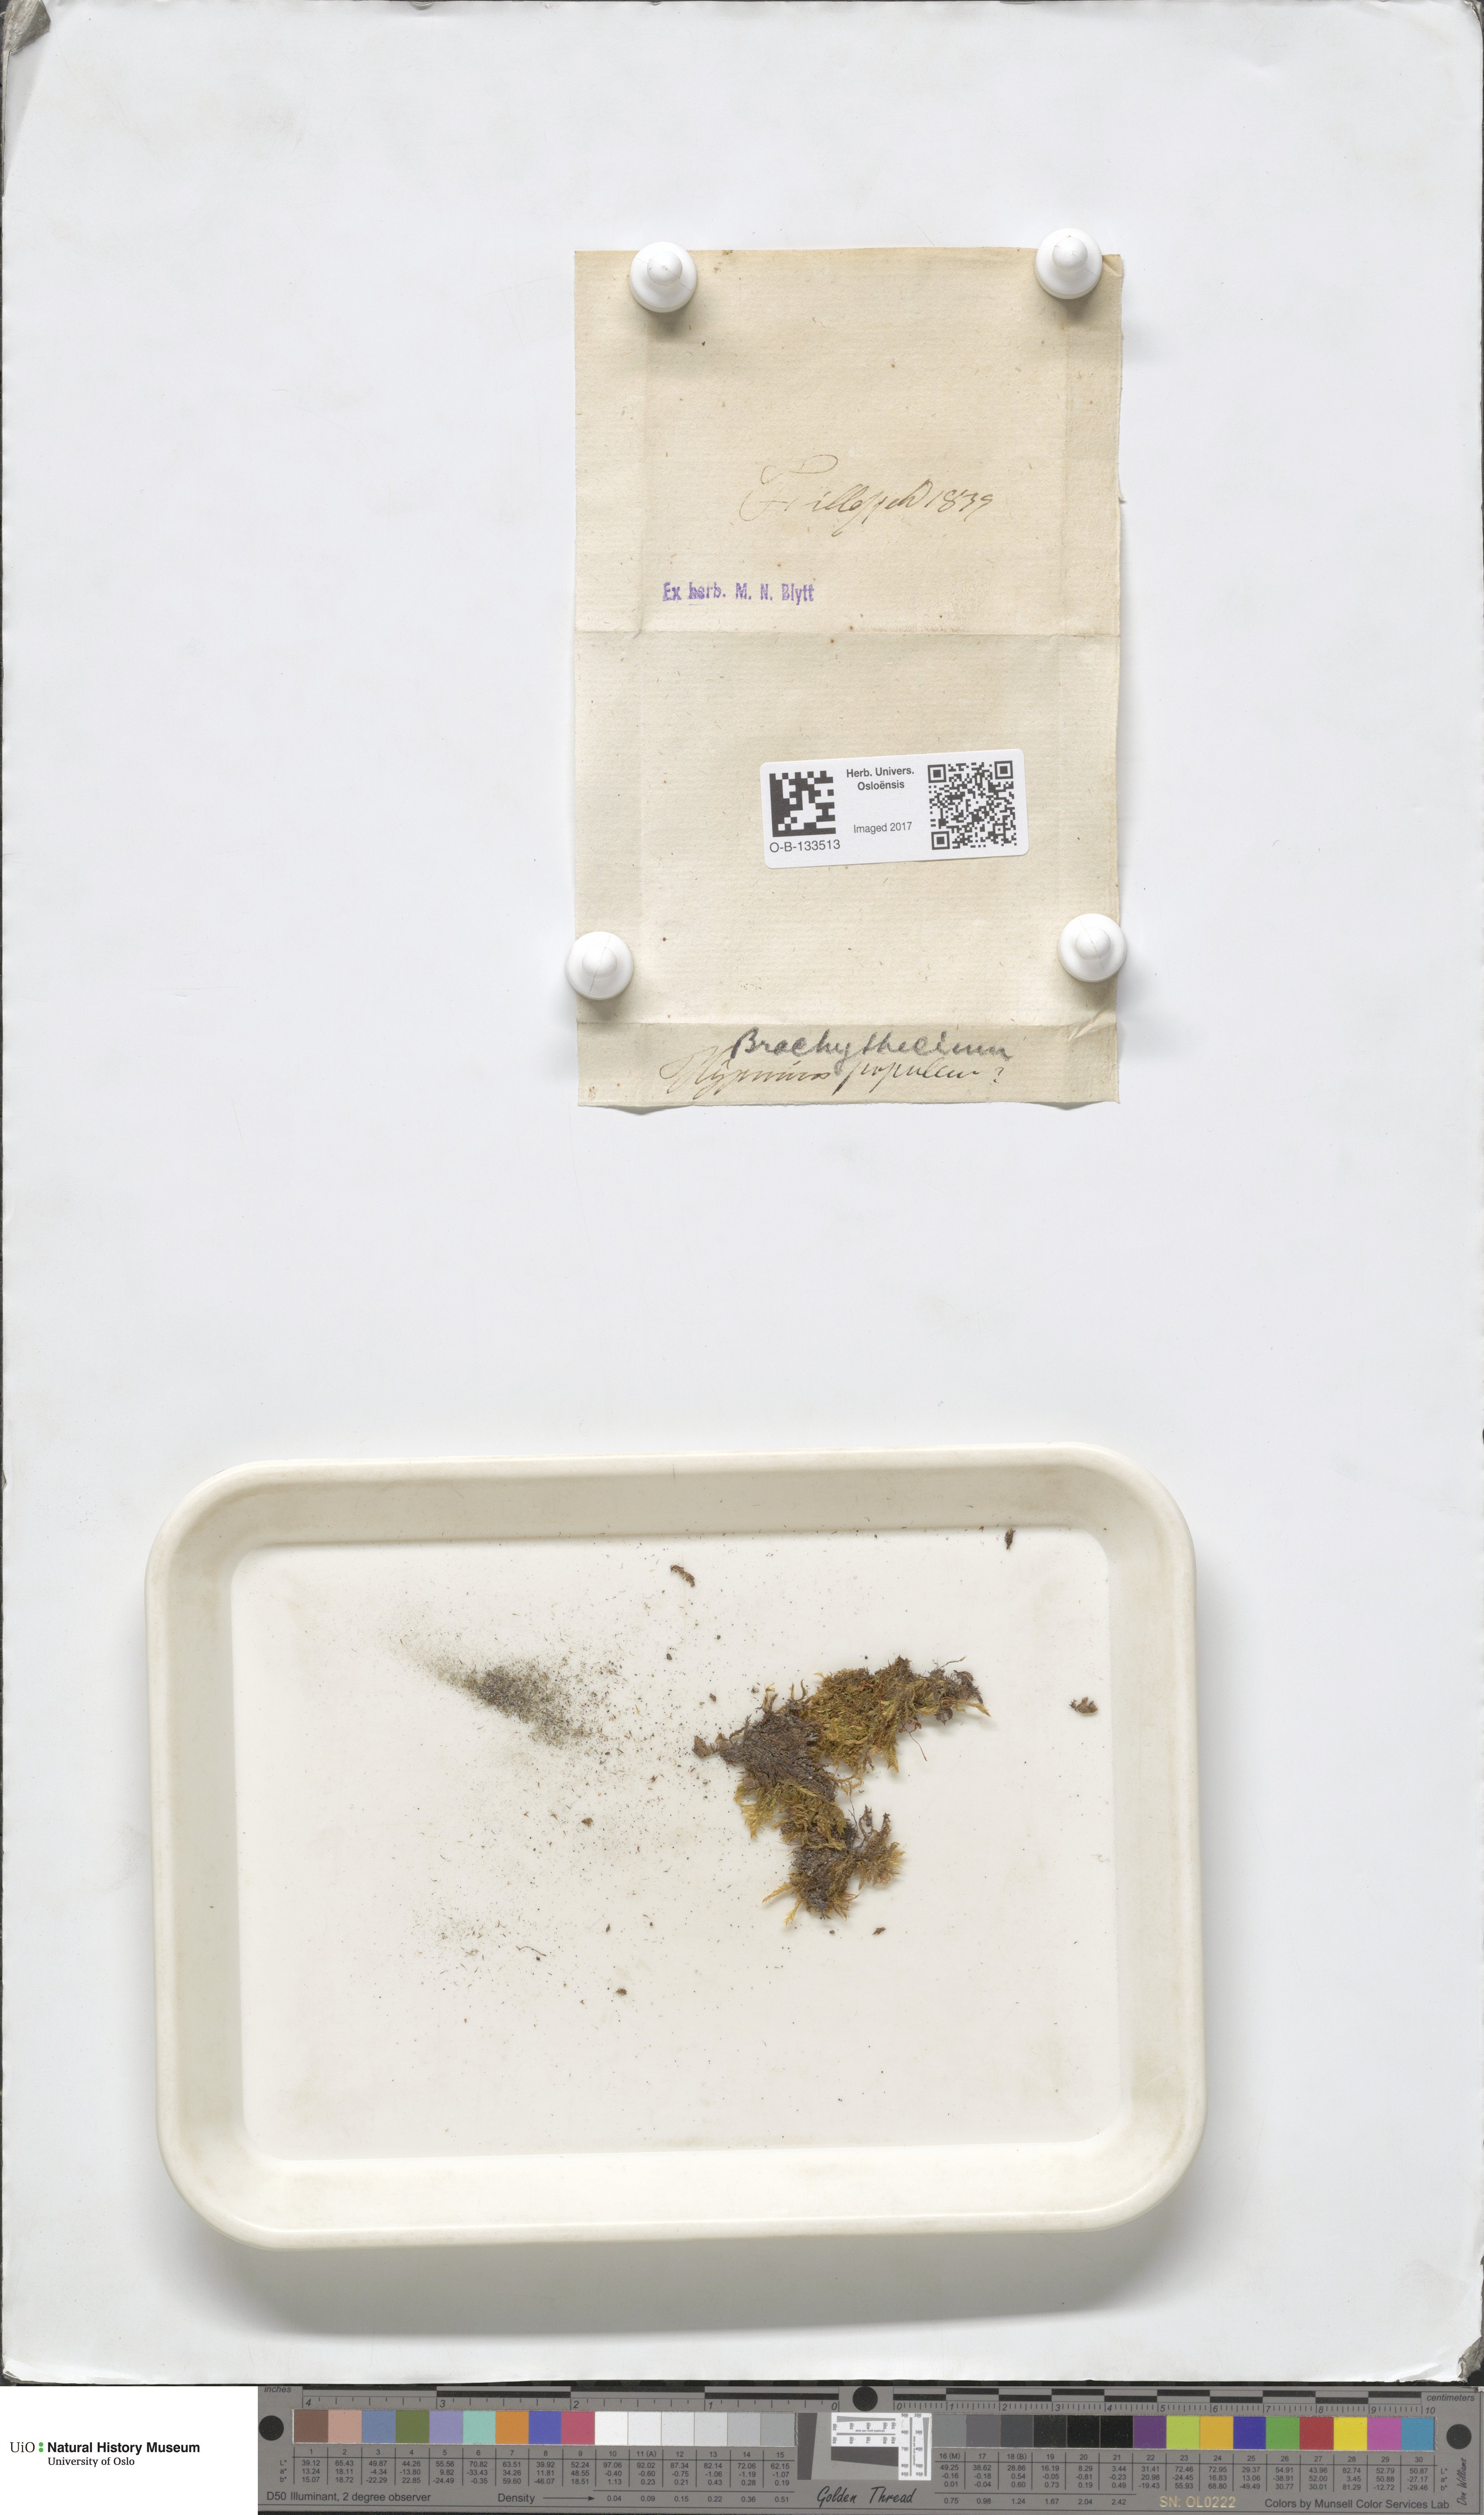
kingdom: Plantae
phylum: Bryophyta
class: Bryopsida
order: Hypnales
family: Brachytheciaceae
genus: Sciuro-hypnum
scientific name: Sciuro-hypnum populeum
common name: Matted feather-moss
